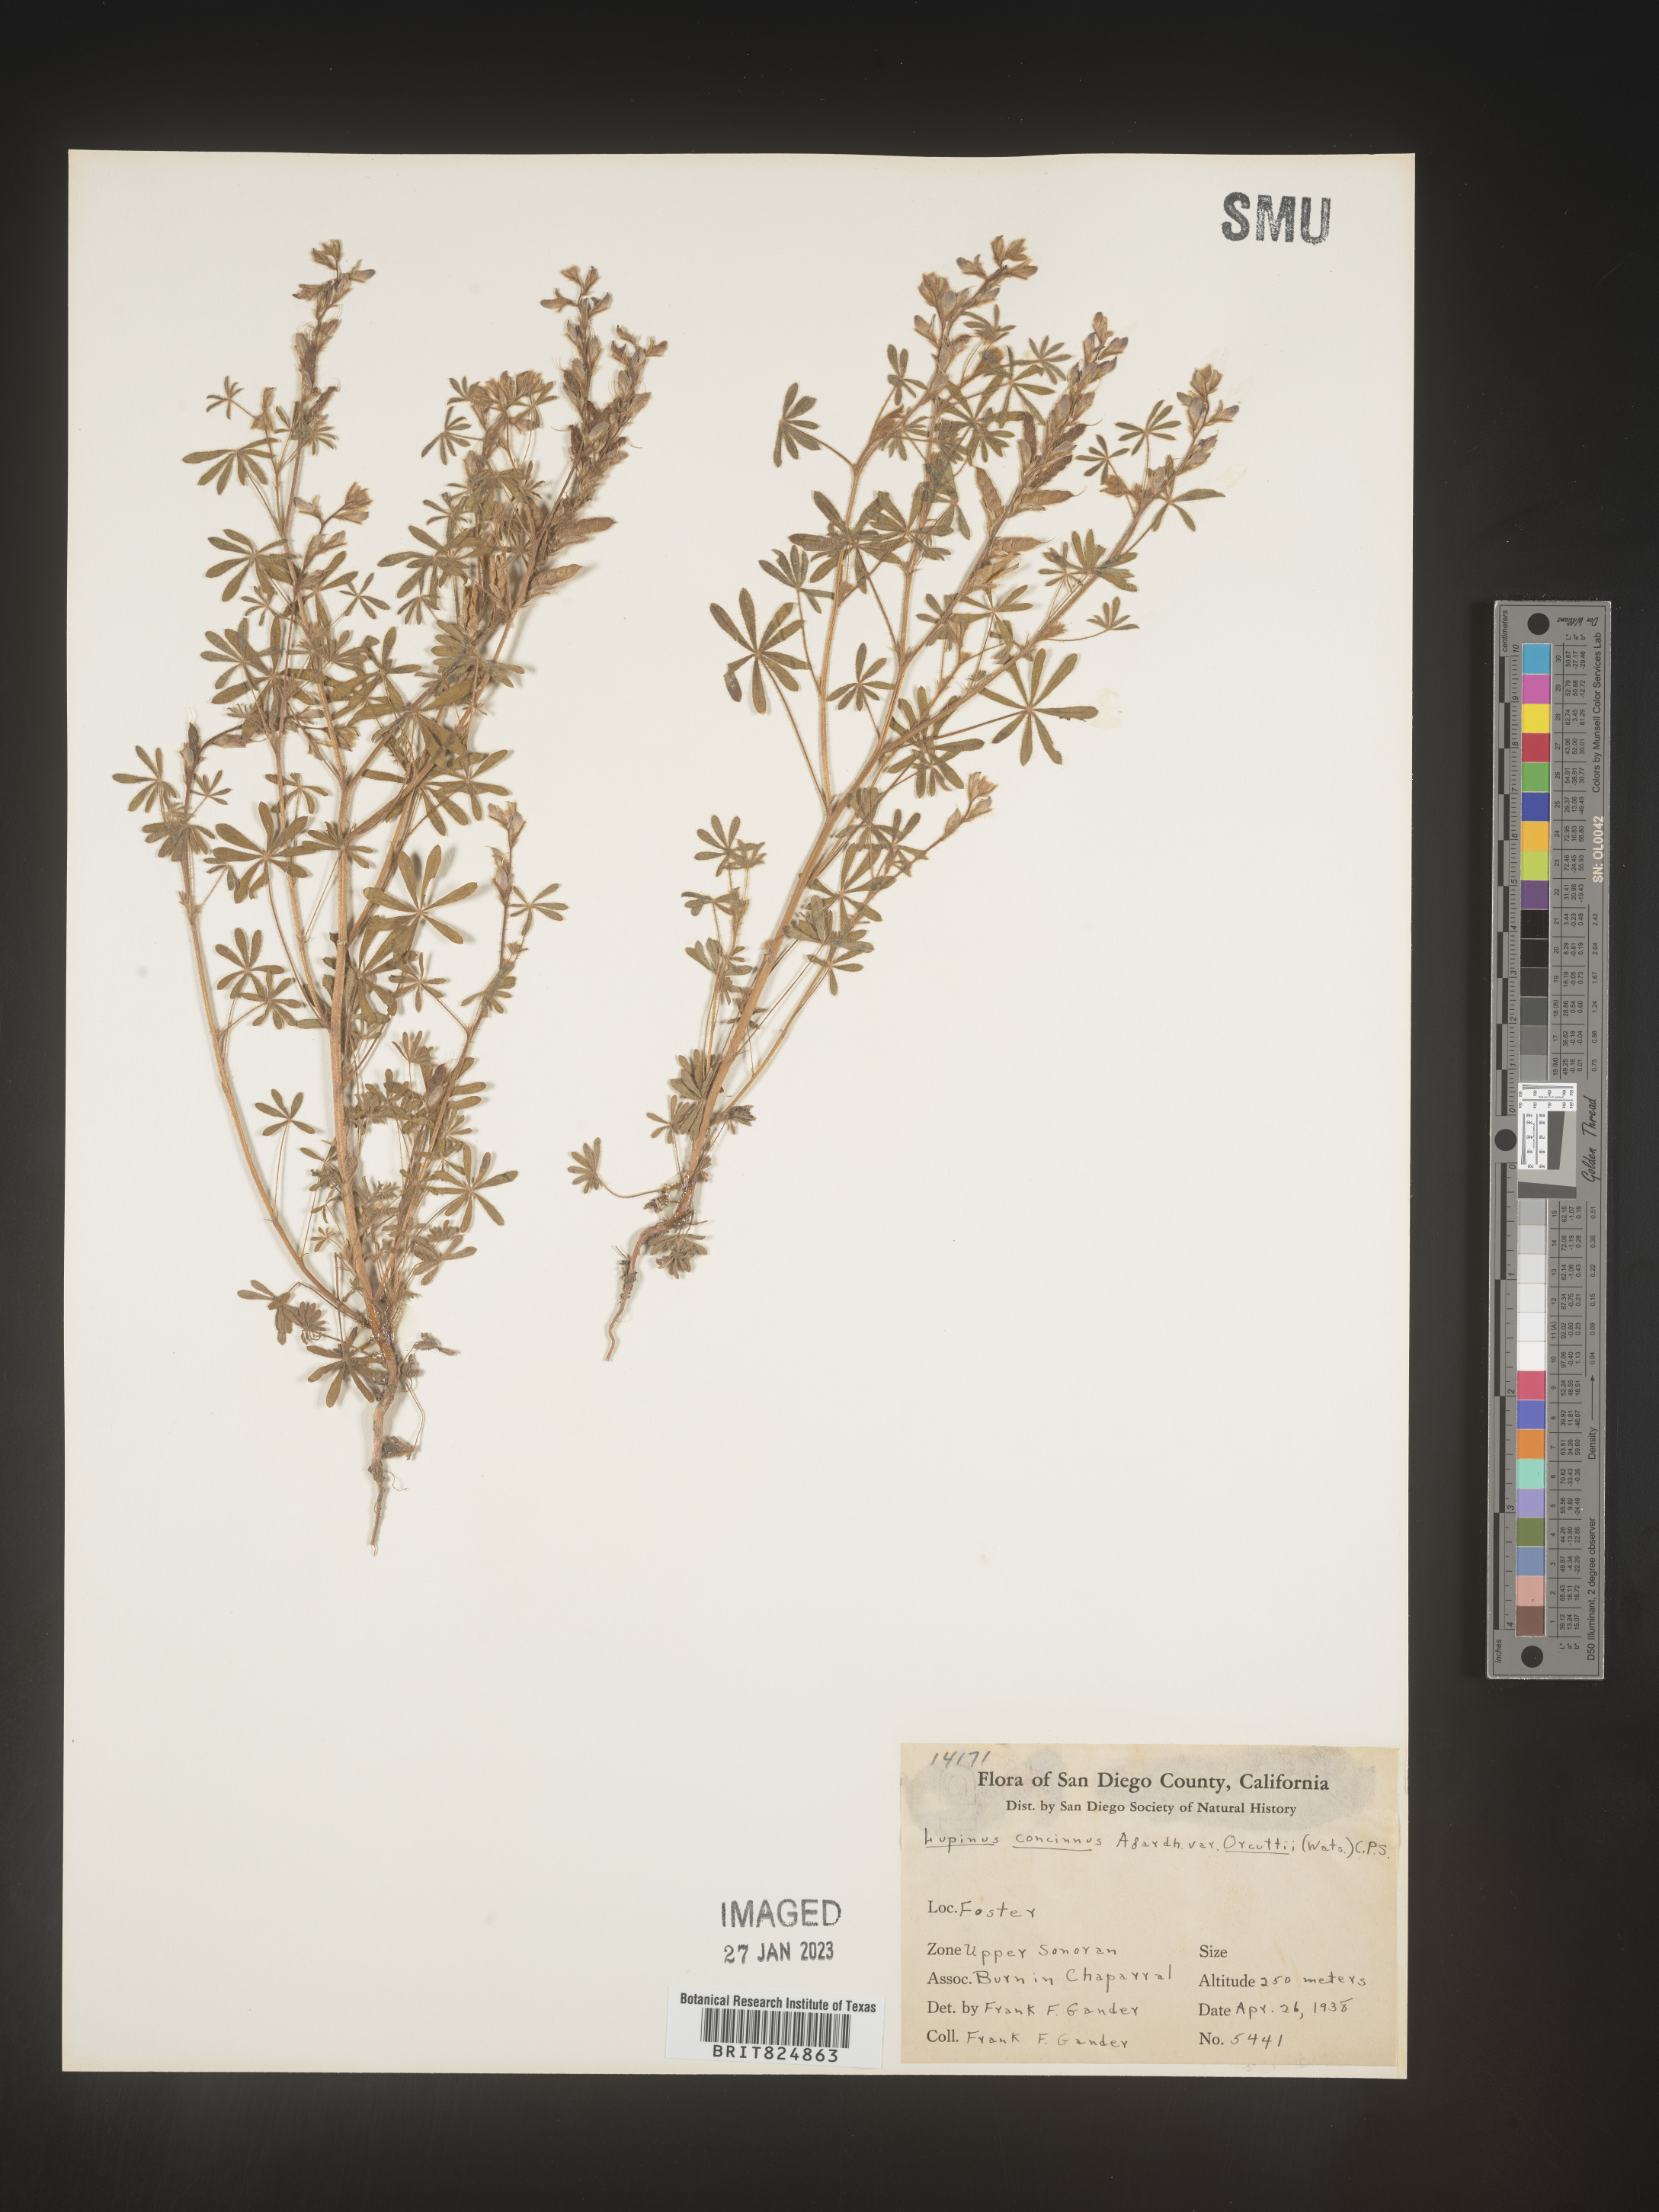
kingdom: Plantae
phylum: Tracheophyta
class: Magnoliopsida
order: Fabales
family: Fabaceae
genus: Lupinus
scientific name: Lupinus
